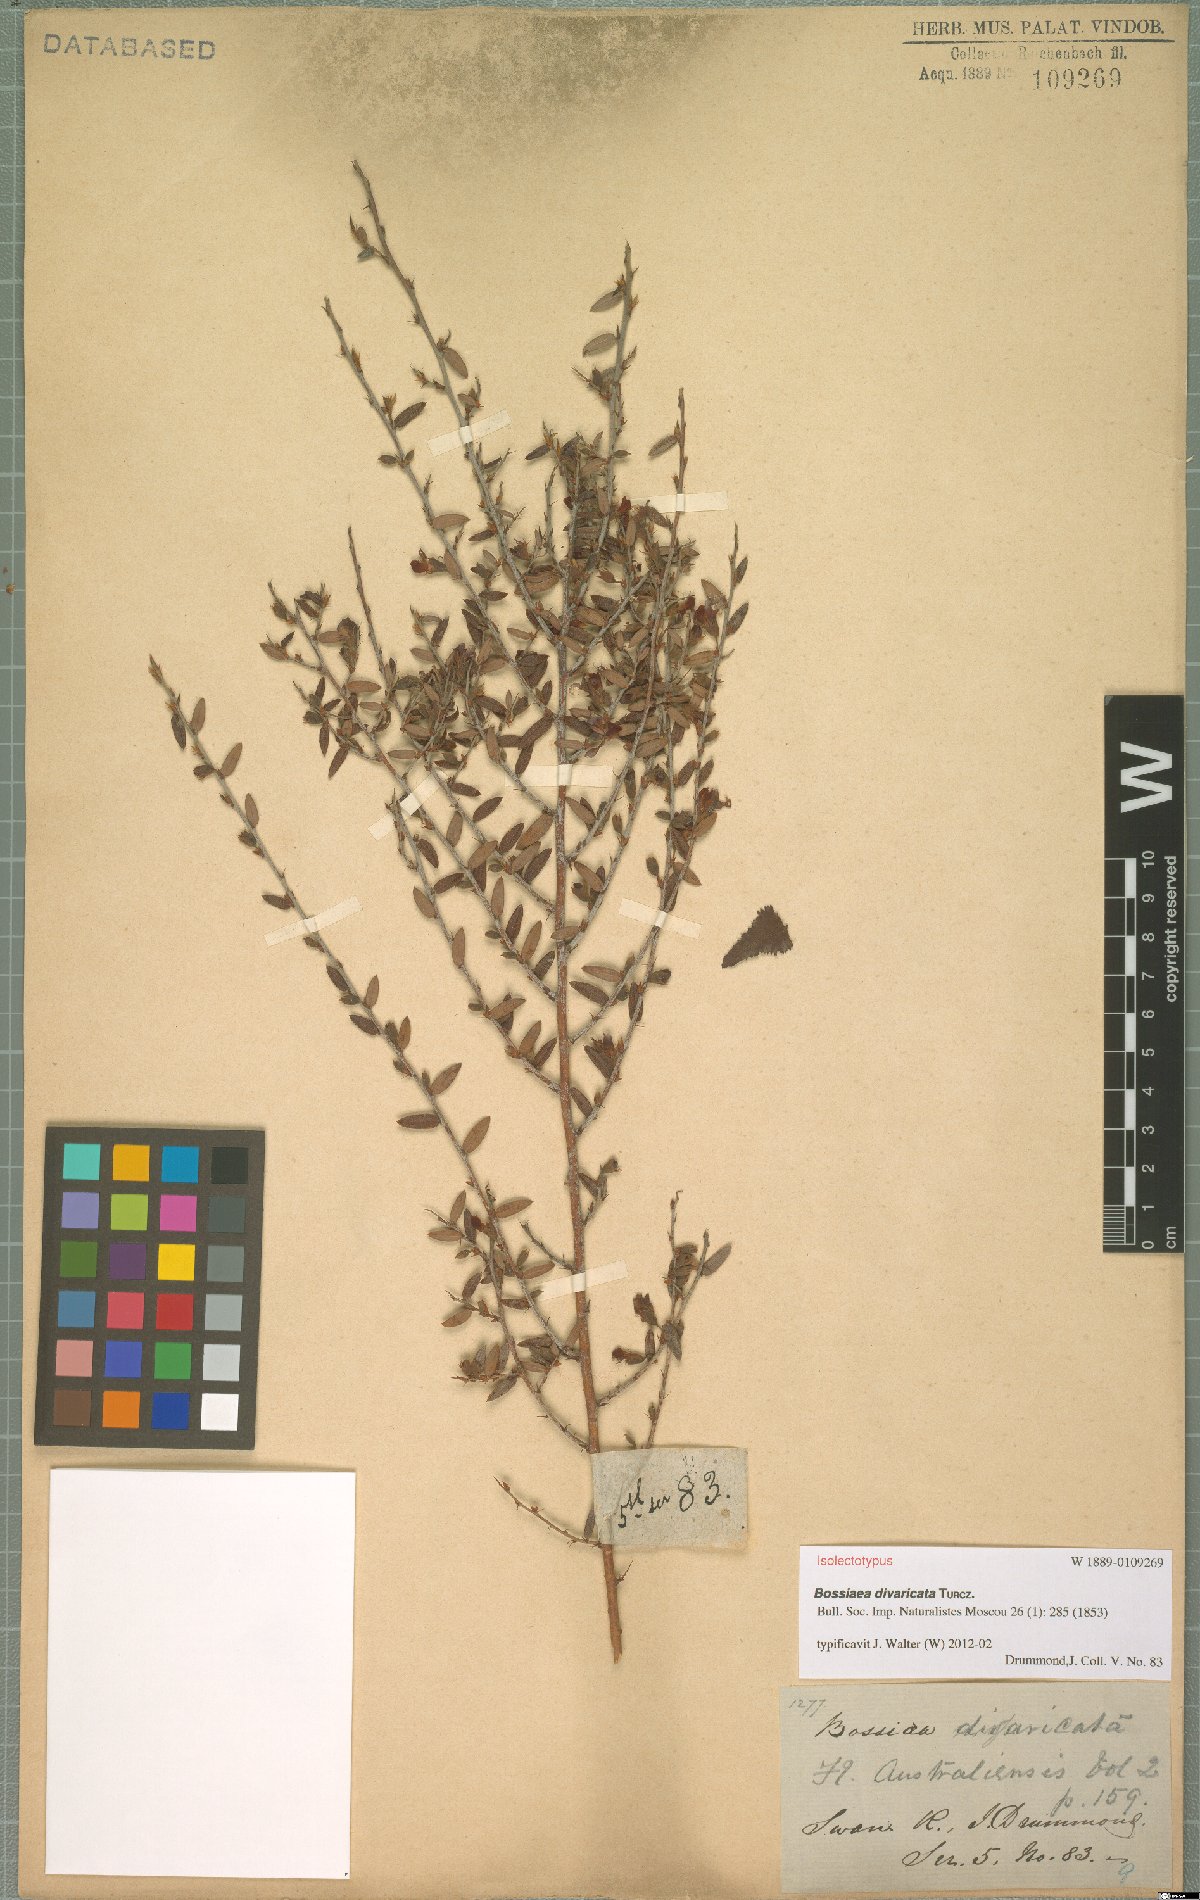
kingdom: Plantae
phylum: Tracheophyta
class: Magnoliopsida
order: Fabales
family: Fabaceae
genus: Bossiaea
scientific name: Bossiaea divaricata
